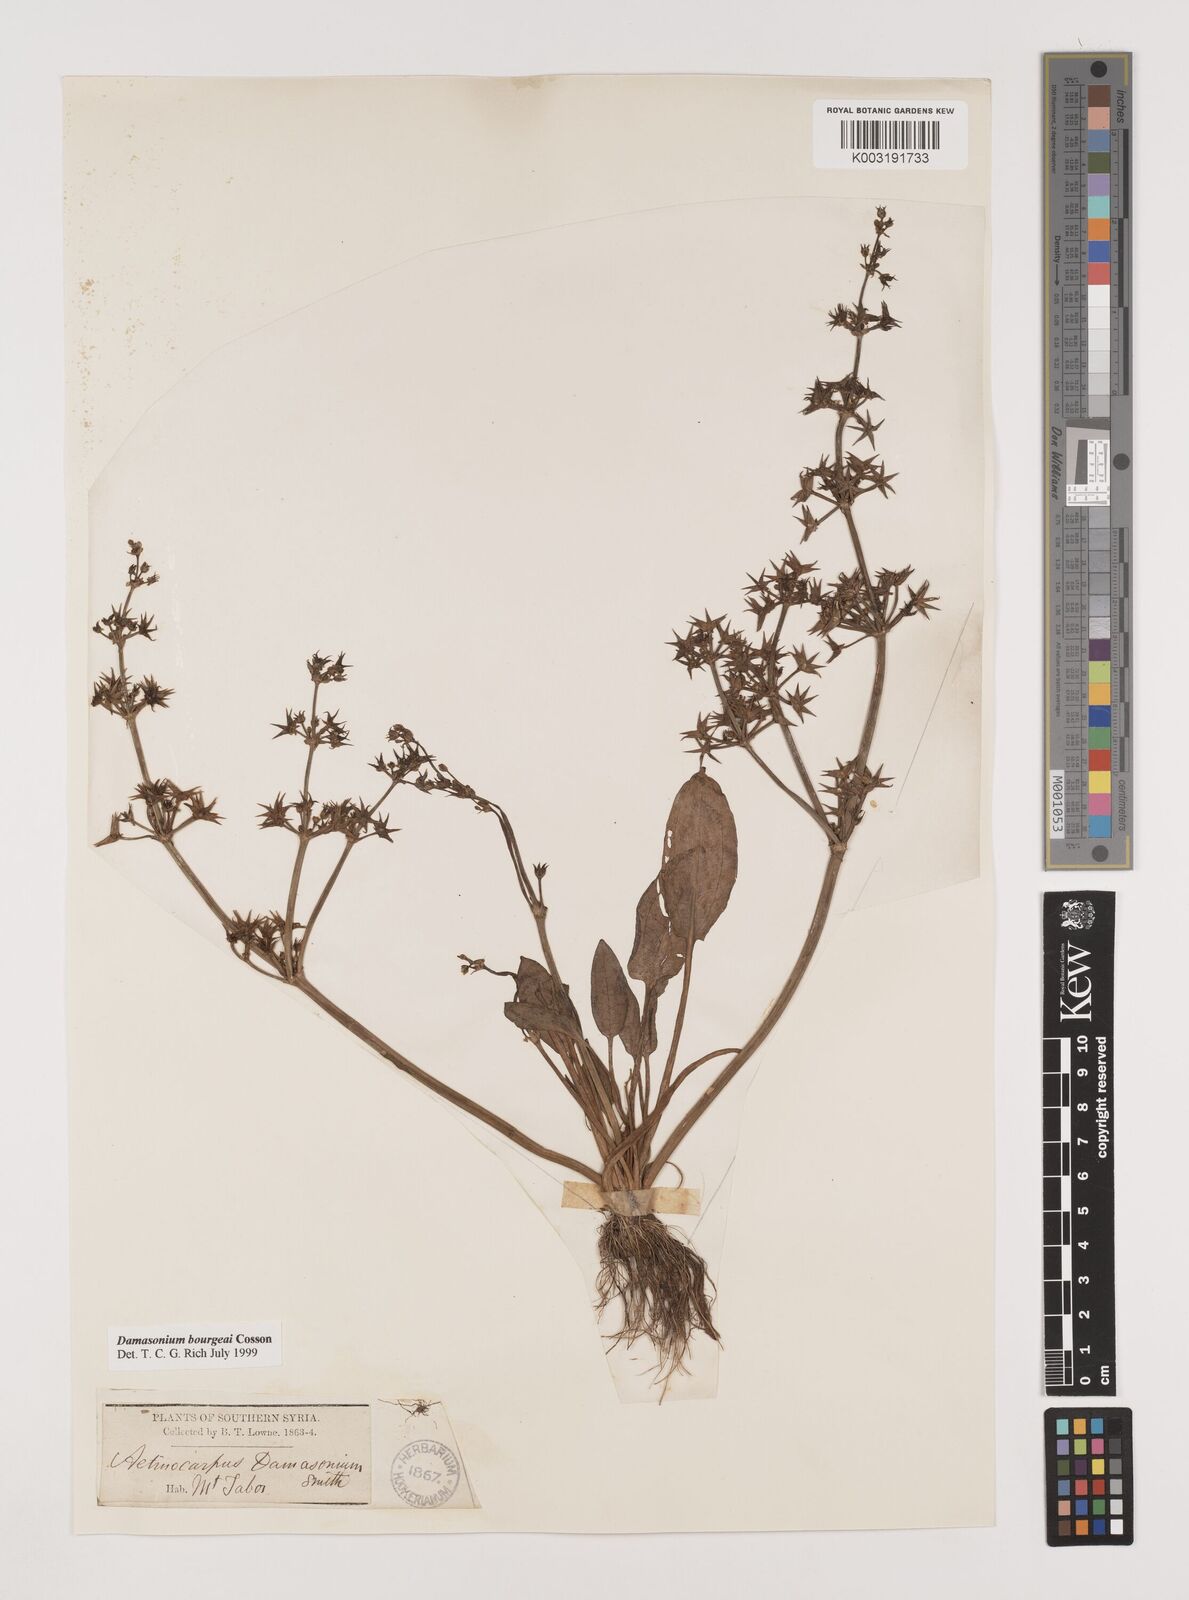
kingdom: Plantae
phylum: Tracheophyta
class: Liliopsida
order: Alismatales
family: Alismataceae
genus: Damasonium
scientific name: Damasonium alisma
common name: Starfruit
